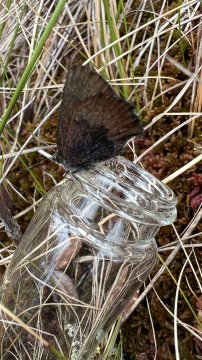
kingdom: Animalia
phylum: Arthropoda
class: Insecta
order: Lepidoptera
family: Lycaenidae
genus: Incisalia
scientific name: Incisalia irioides
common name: Brown Elfin
